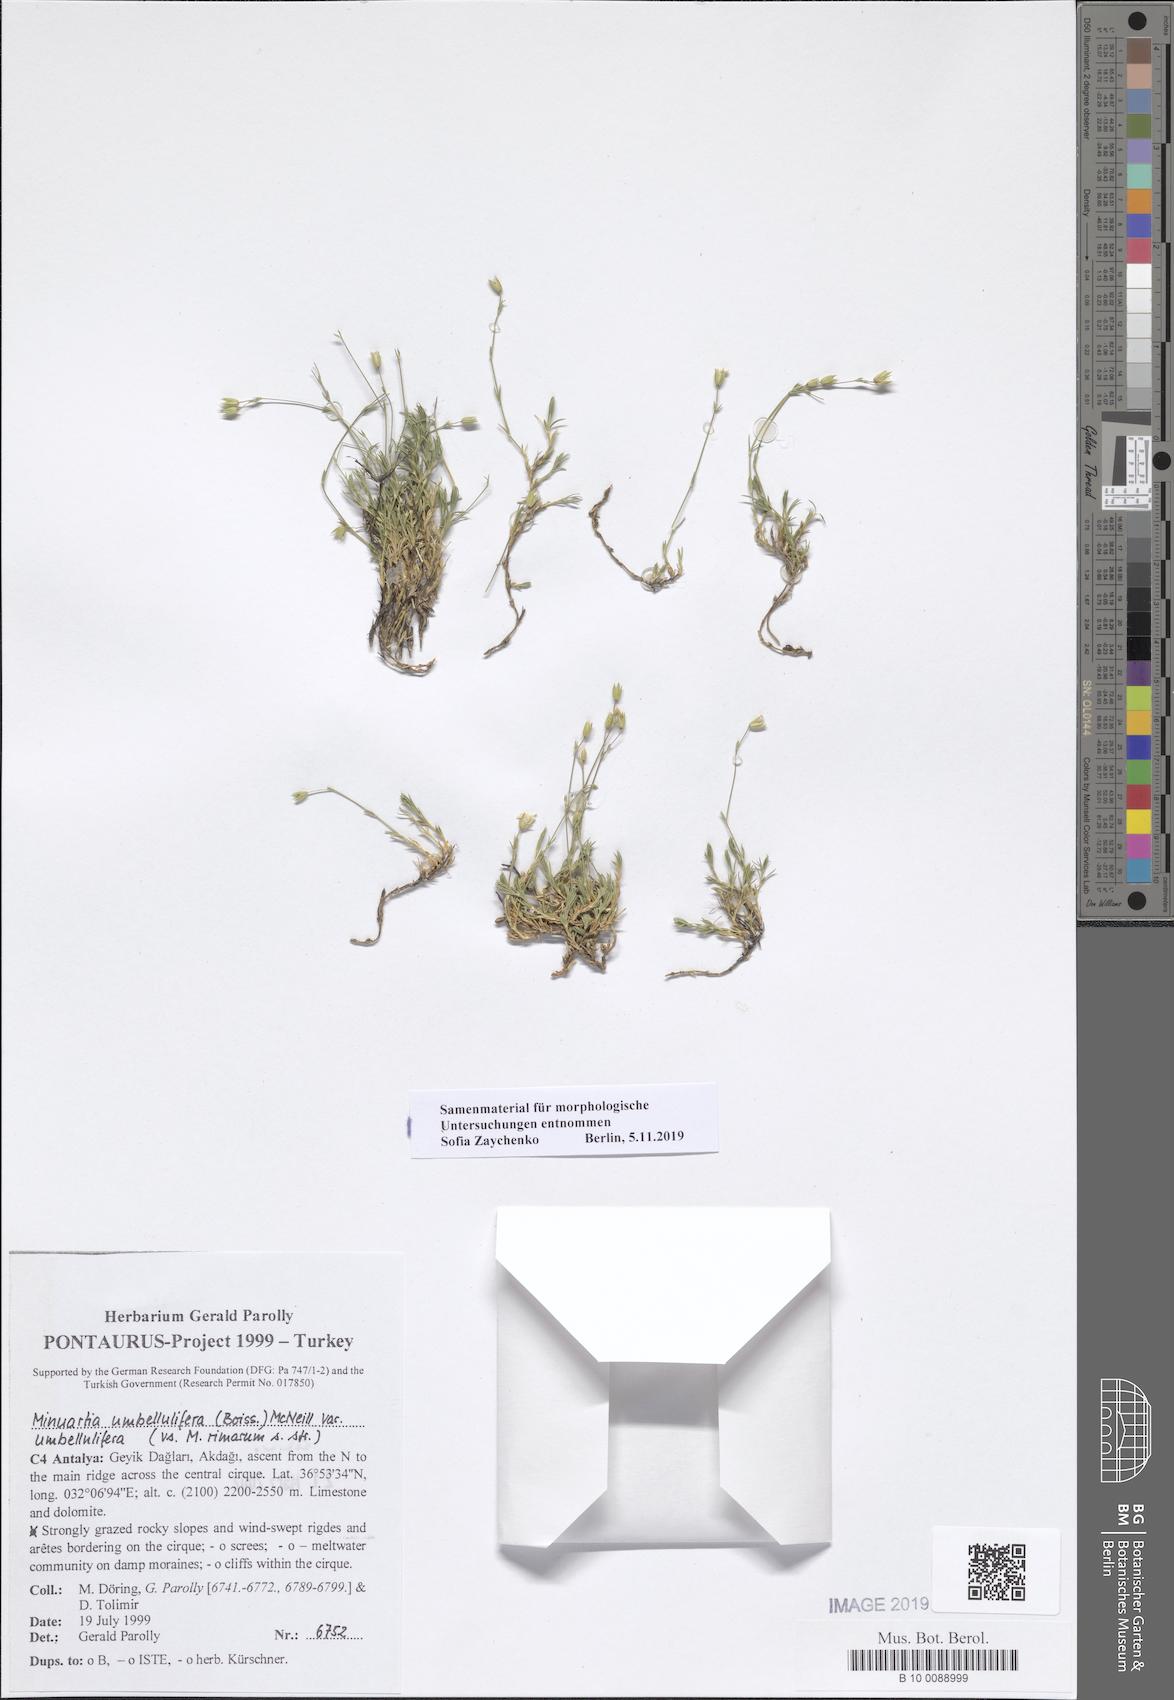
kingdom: Plantae
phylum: Tracheophyta
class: Magnoliopsida
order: Caryophyllales
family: Caryophyllaceae
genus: Sabulina
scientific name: Sabulina umbellulifera
